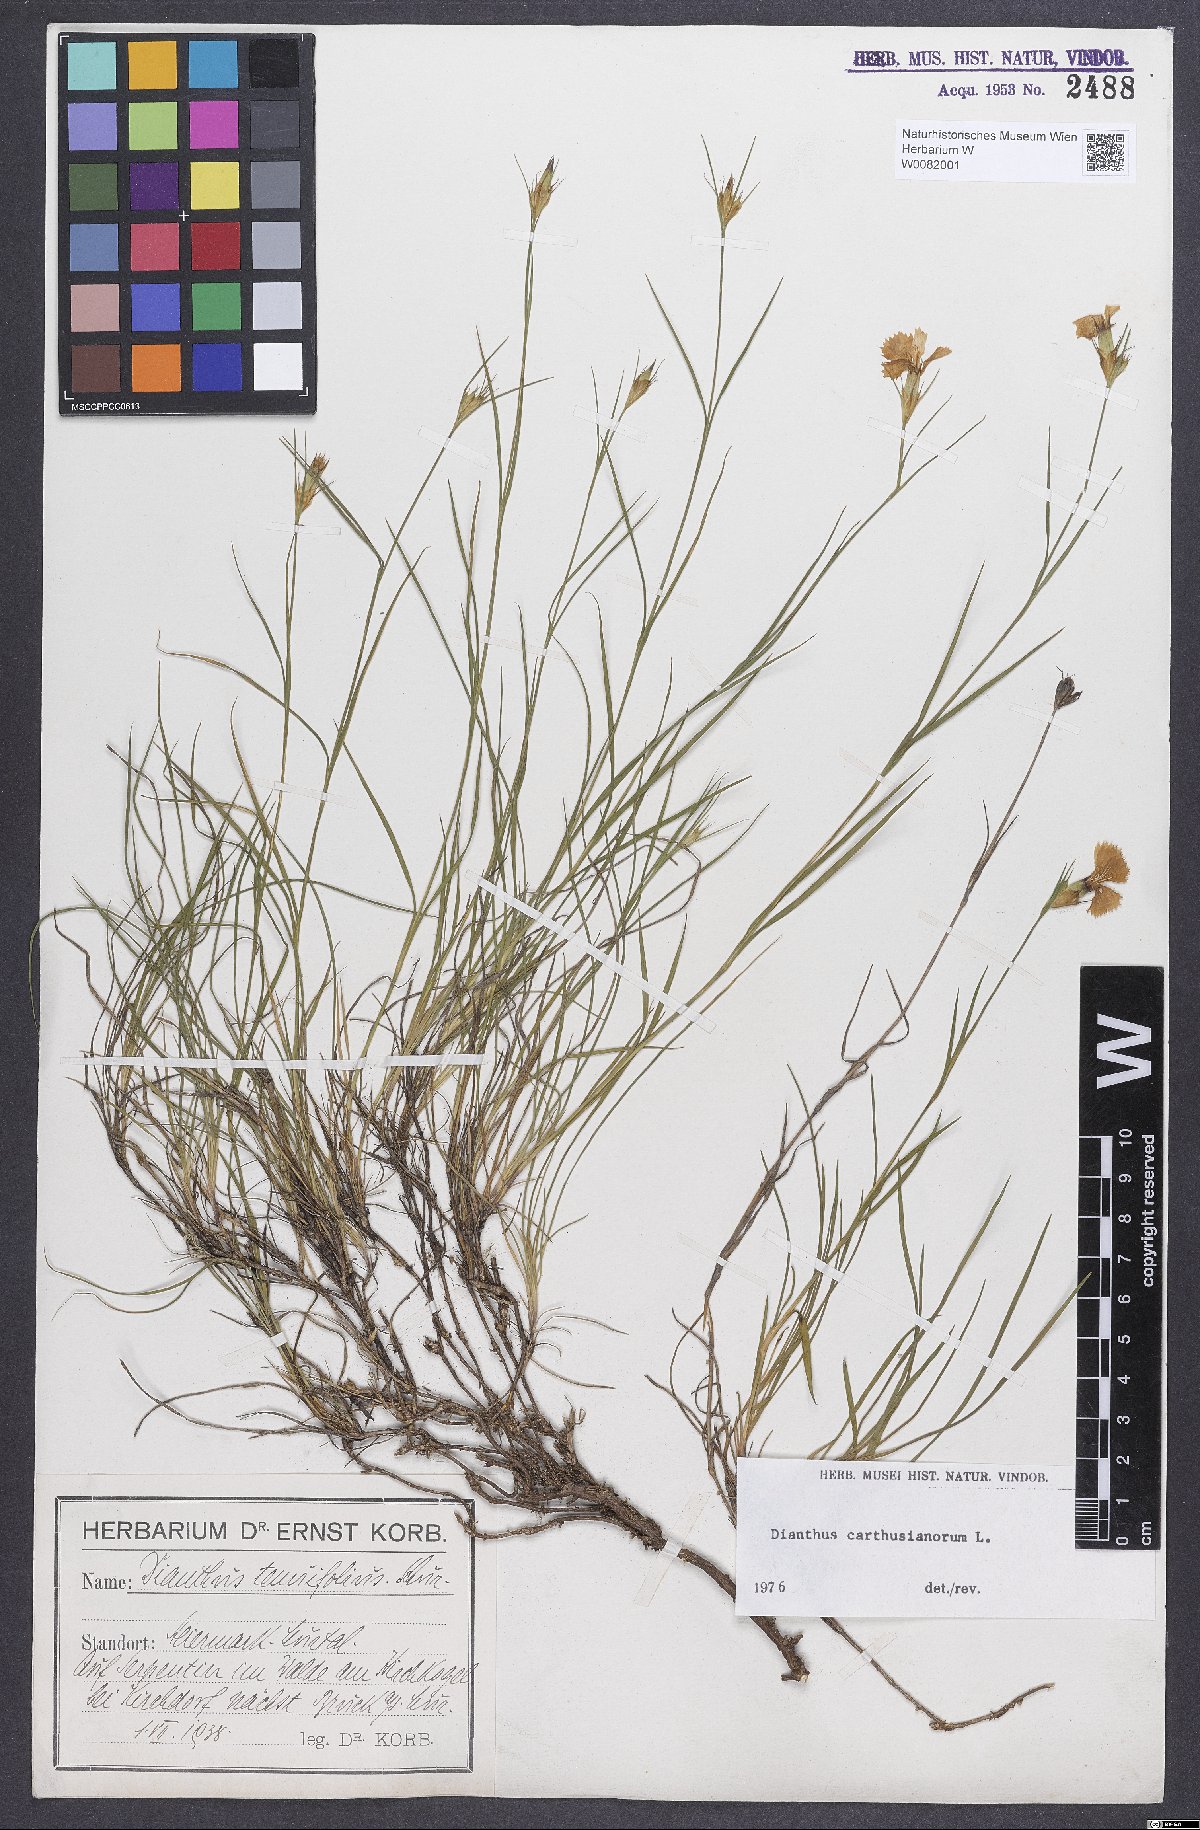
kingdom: Plantae
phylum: Tracheophyta
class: Magnoliopsida
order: Caryophyllales
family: Caryophyllaceae
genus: Dianthus
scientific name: Dianthus carthusianorum
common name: Carthusian pink
